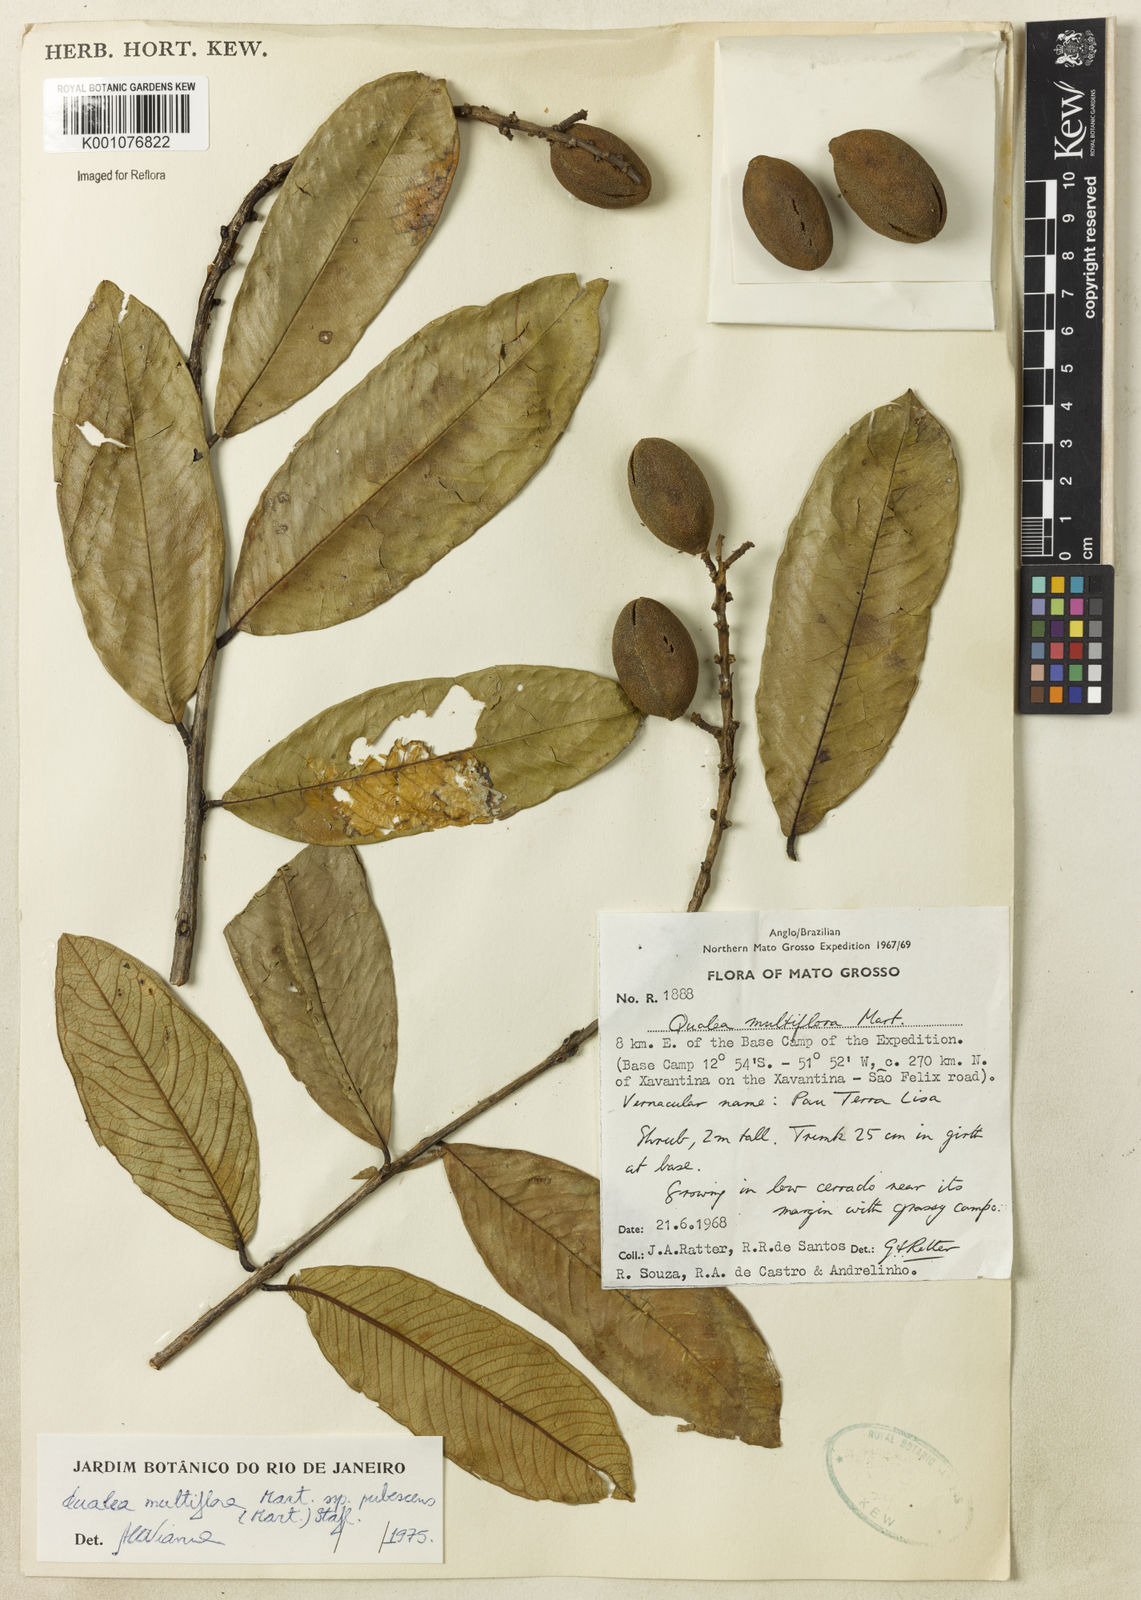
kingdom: Plantae
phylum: Tracheophyta
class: Magnoliopsida
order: Myrtales
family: Vochysiaceae
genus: Qualea
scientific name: Qualea multiflora
